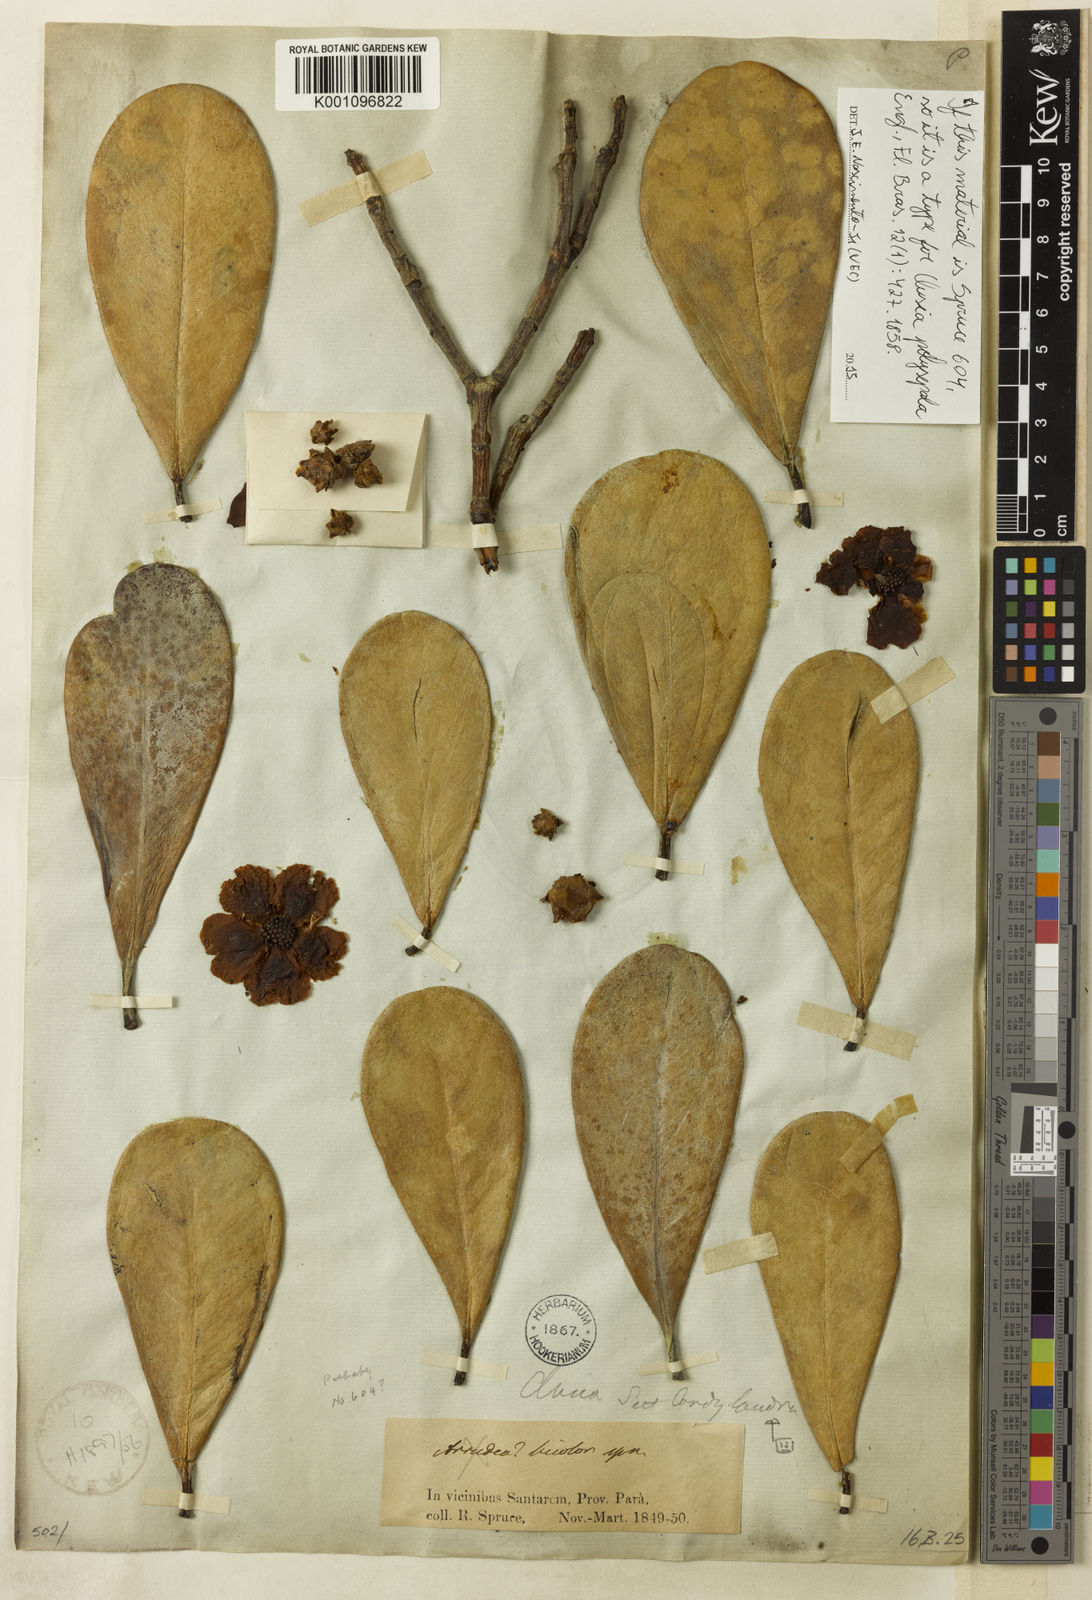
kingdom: Plantae
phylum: Tracheophyta
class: Magnoliopsida
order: Malpighiales
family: Clusiaceae
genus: Clusia
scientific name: Clusia polysepala
